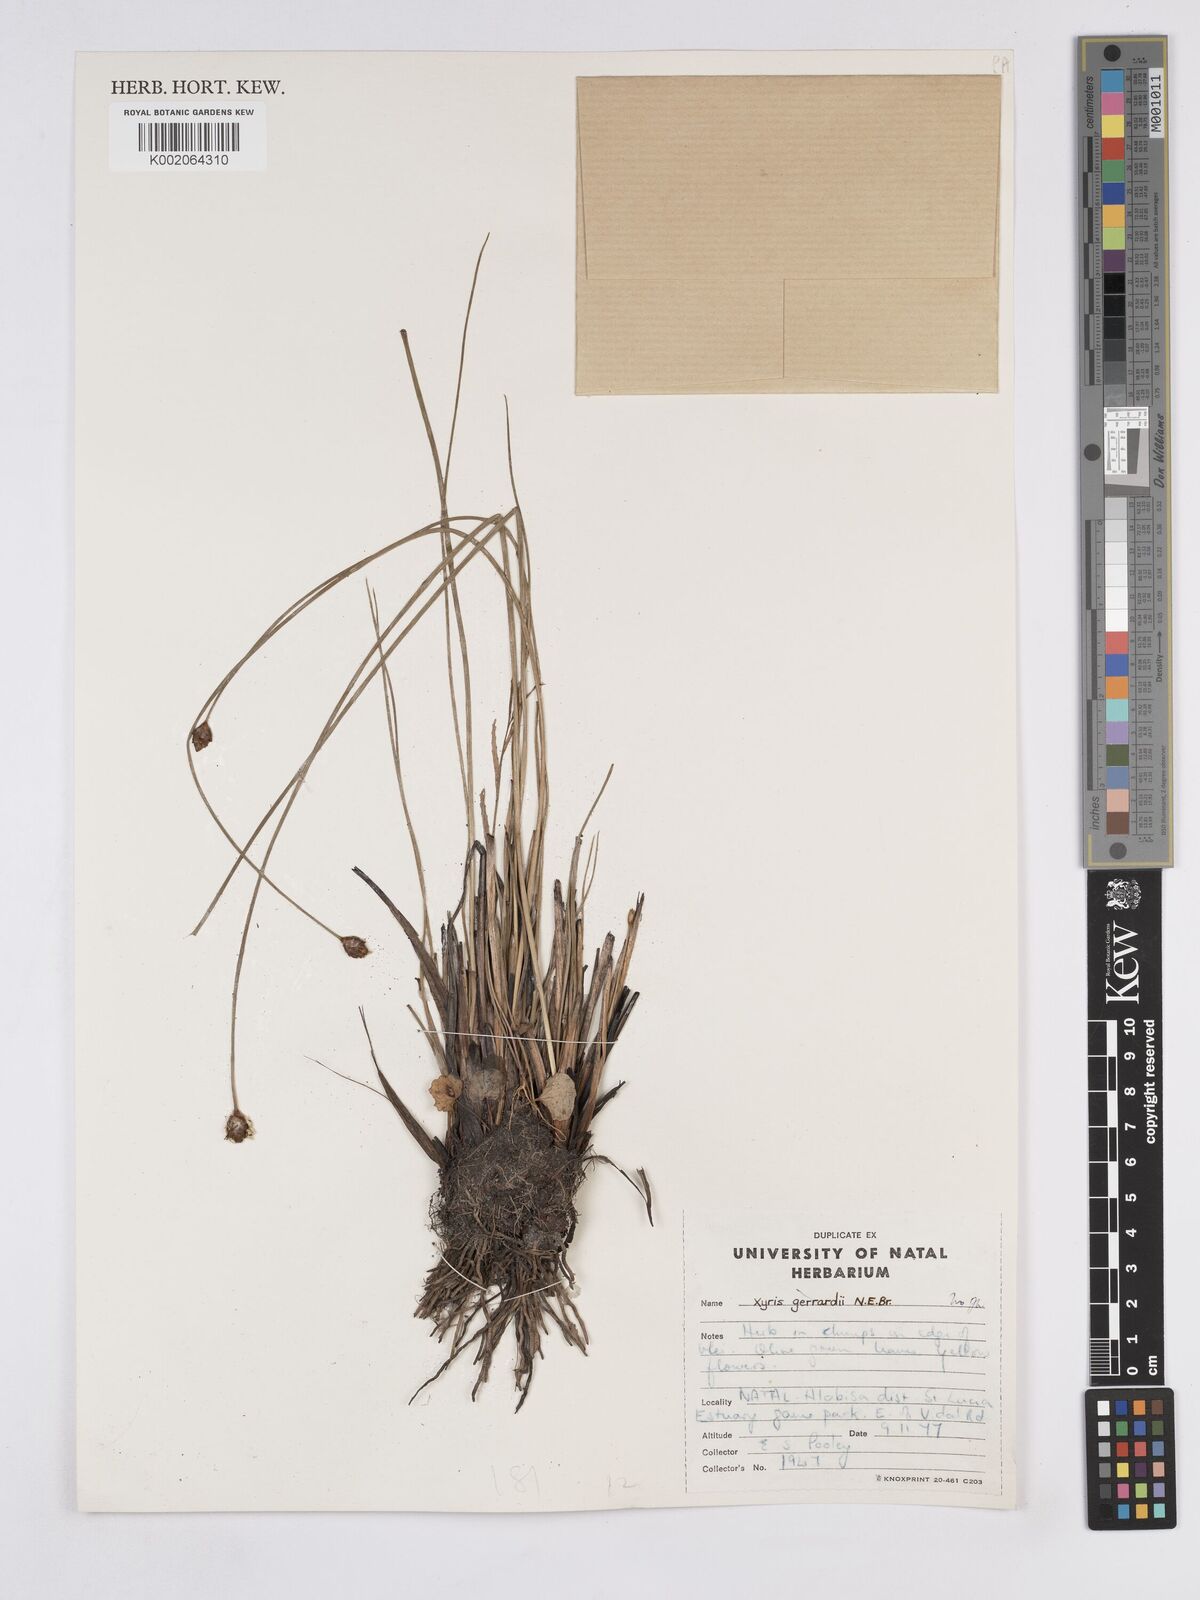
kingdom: Plantae
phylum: Tracheophyta
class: Liliopsida
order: Poales
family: Xyridaceae
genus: Xyris
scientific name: Xyris congensis
